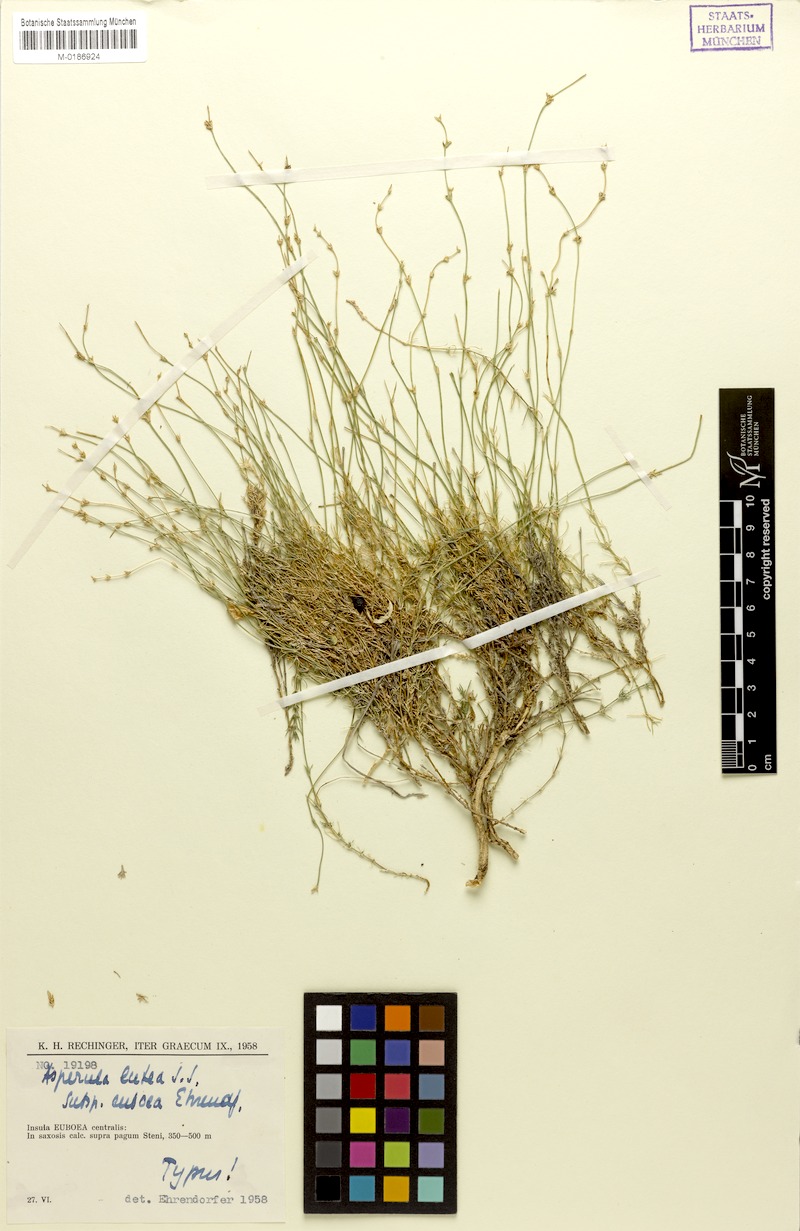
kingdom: Plantae
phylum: Tracheophyta
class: Magnoliopsida
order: Gentianales
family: Rubiaceae
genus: Cynanchica
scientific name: Cynanchica lutea
